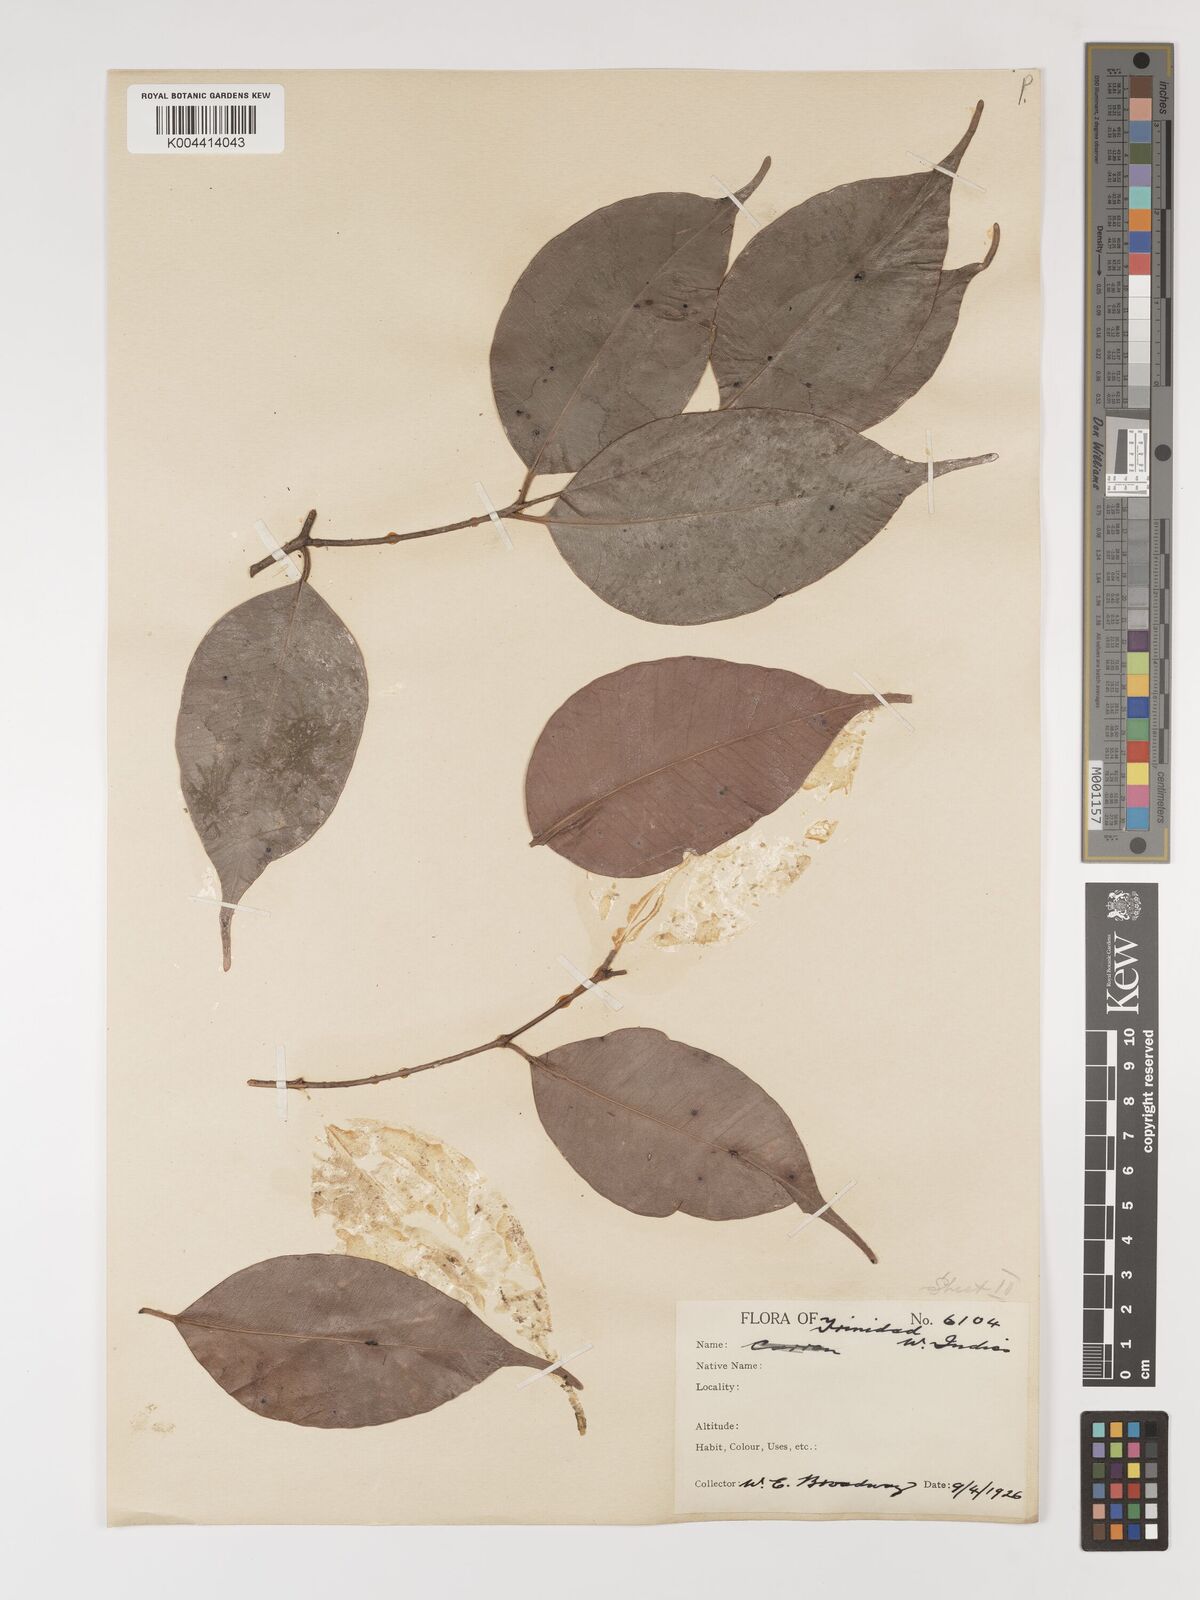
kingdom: Plantae
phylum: Tracheophyta
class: Magnoliopsida
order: Myrtales
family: Myrtaceae
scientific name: Myrtaceae
